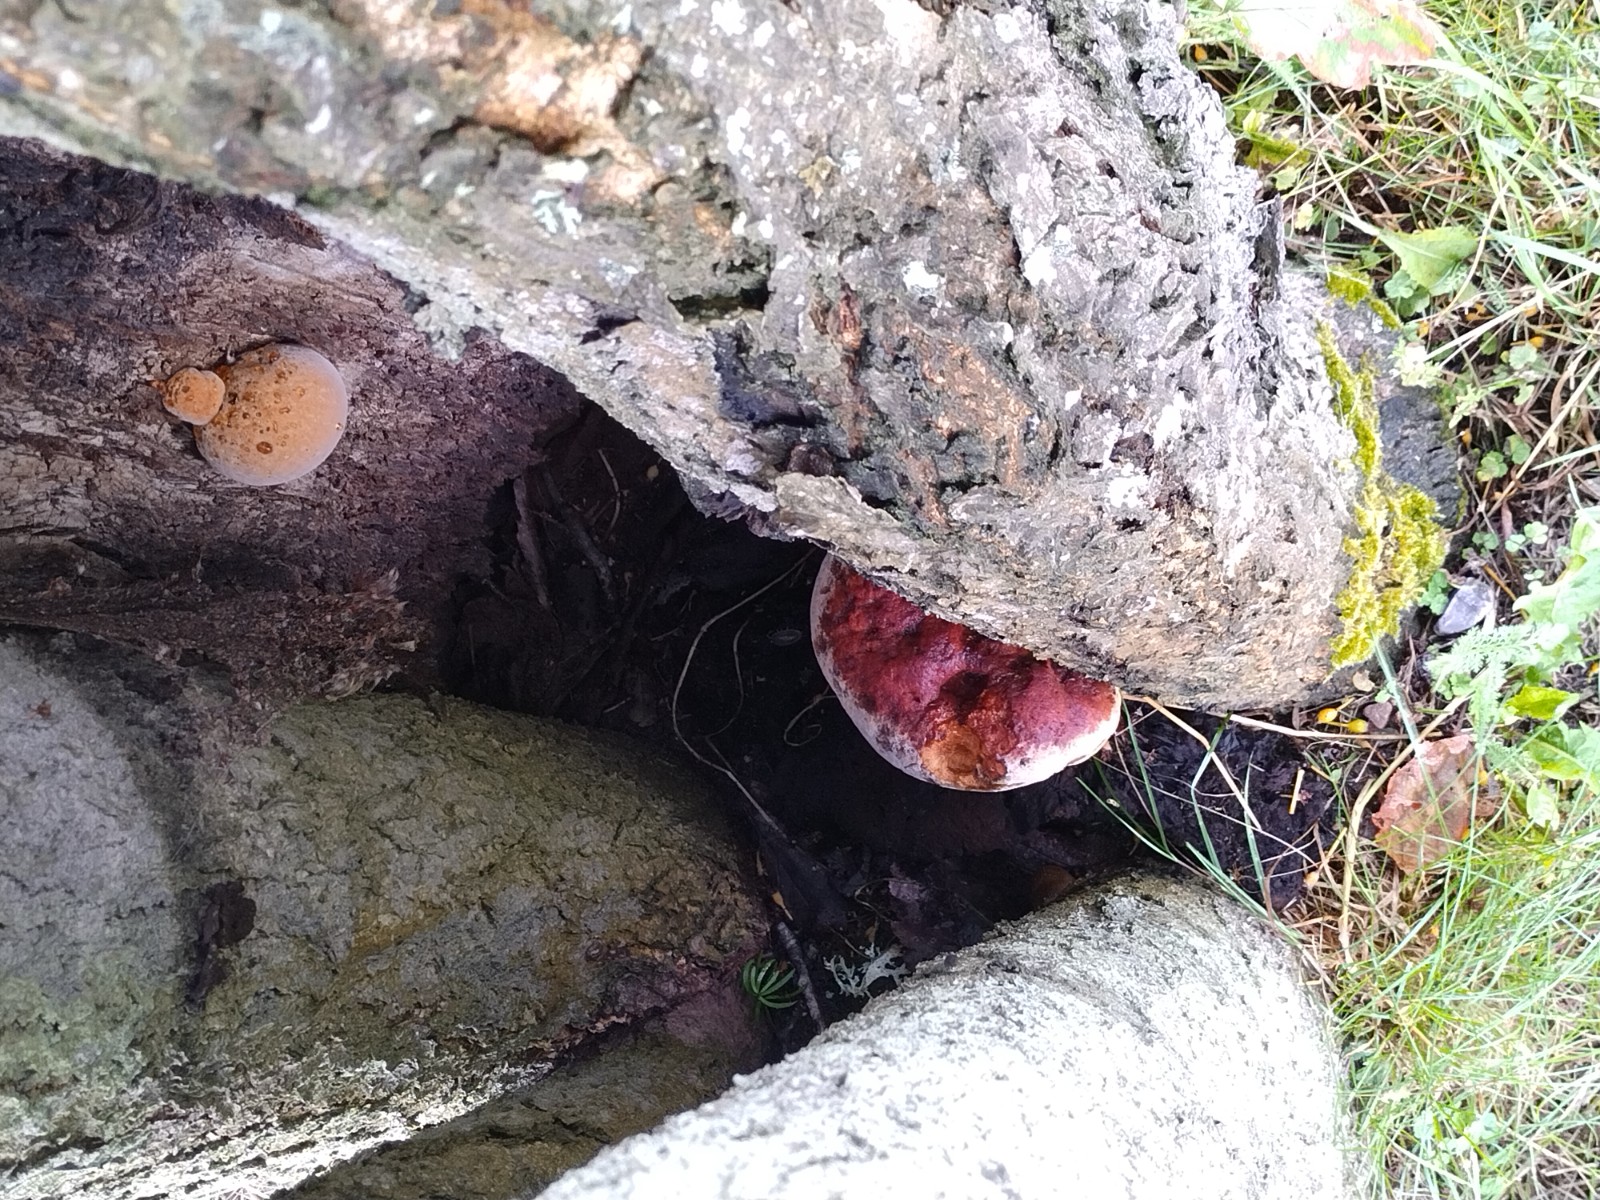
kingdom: Fungi
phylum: Basidiomycota
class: Agaricomycetes
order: Hymenochaetales
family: Hymenochaetaceae
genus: Inonotus
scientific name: Inonotus hispidus
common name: børstehåret spejlporesvamp
